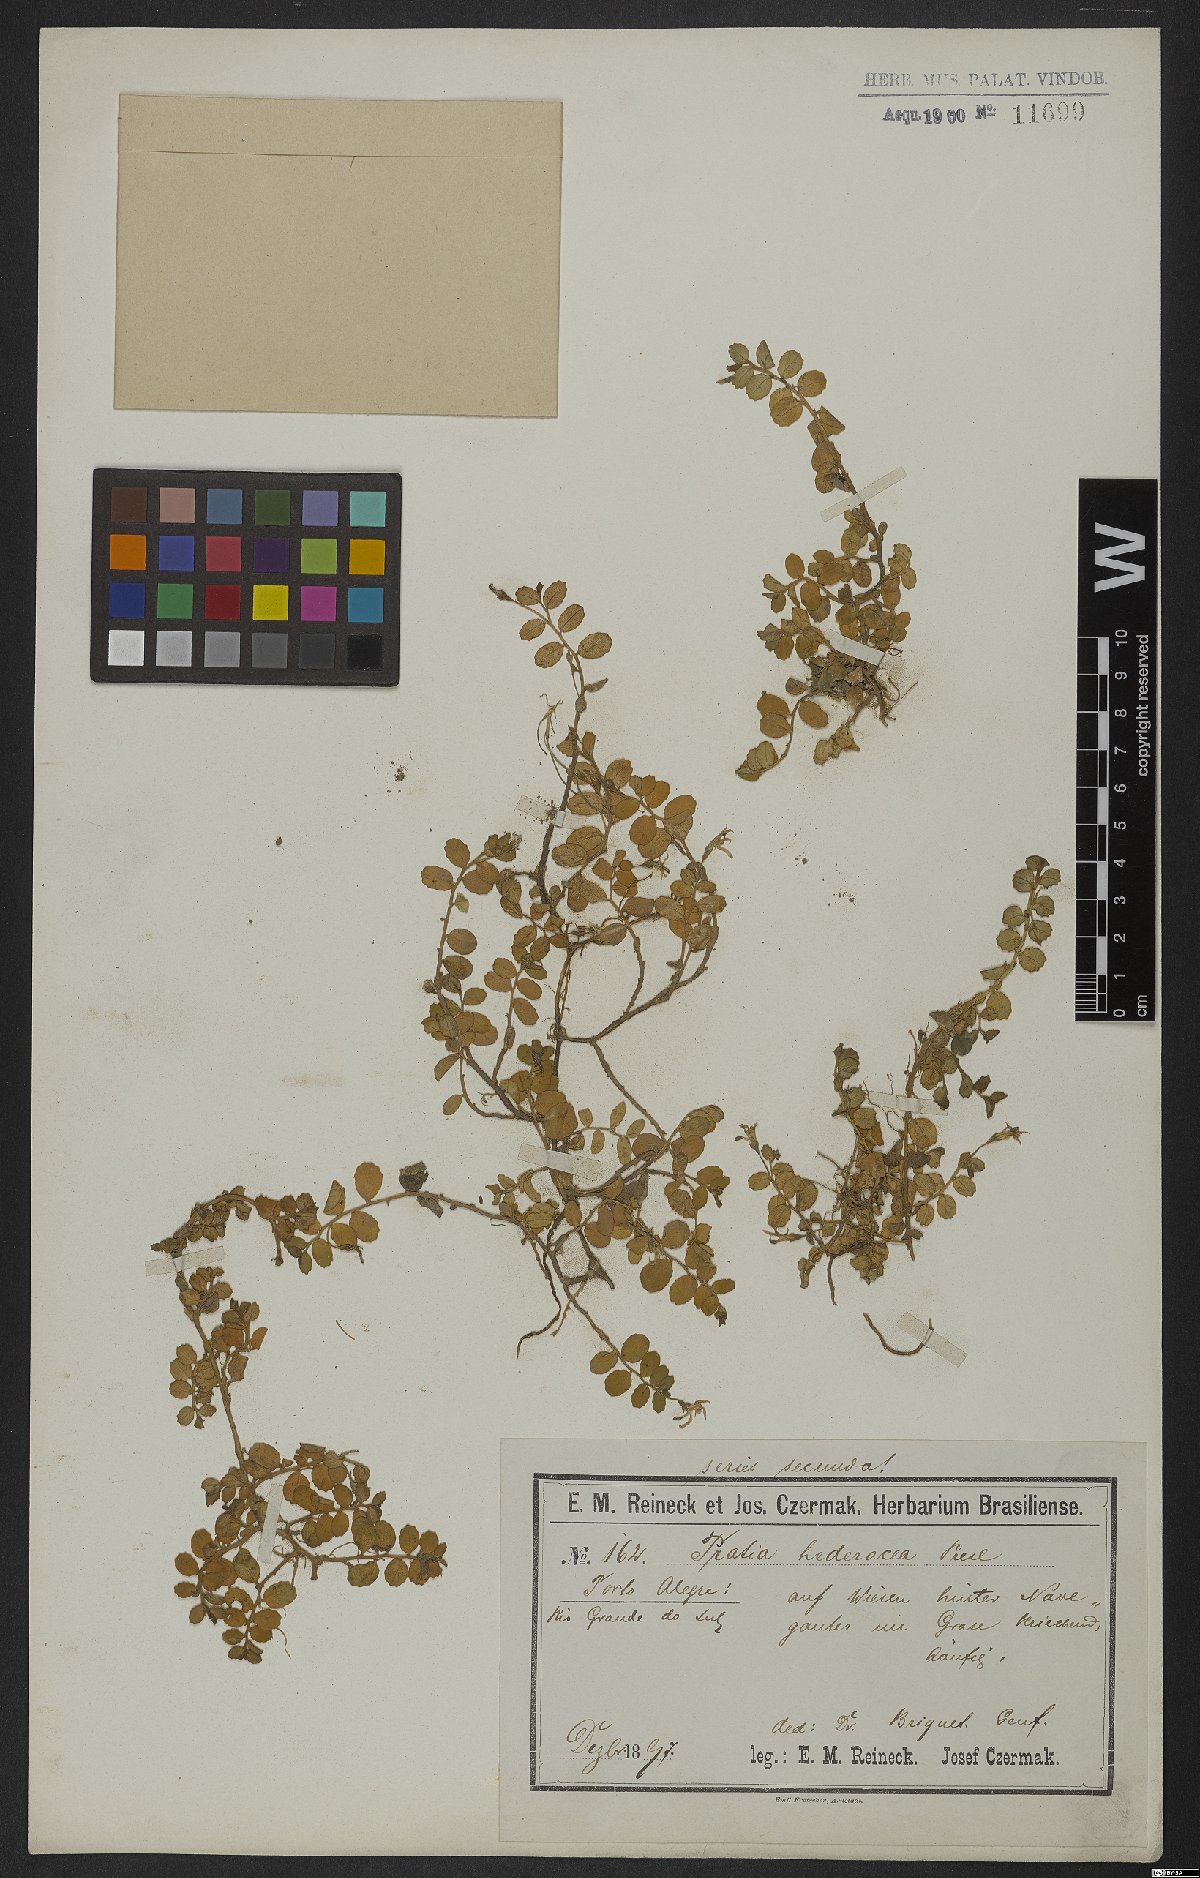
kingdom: Plantae
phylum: Tracheophyta
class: Magnoliopsida
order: Asterales
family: Campanulaceae
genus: Lobelia
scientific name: Lobelia hederacea
